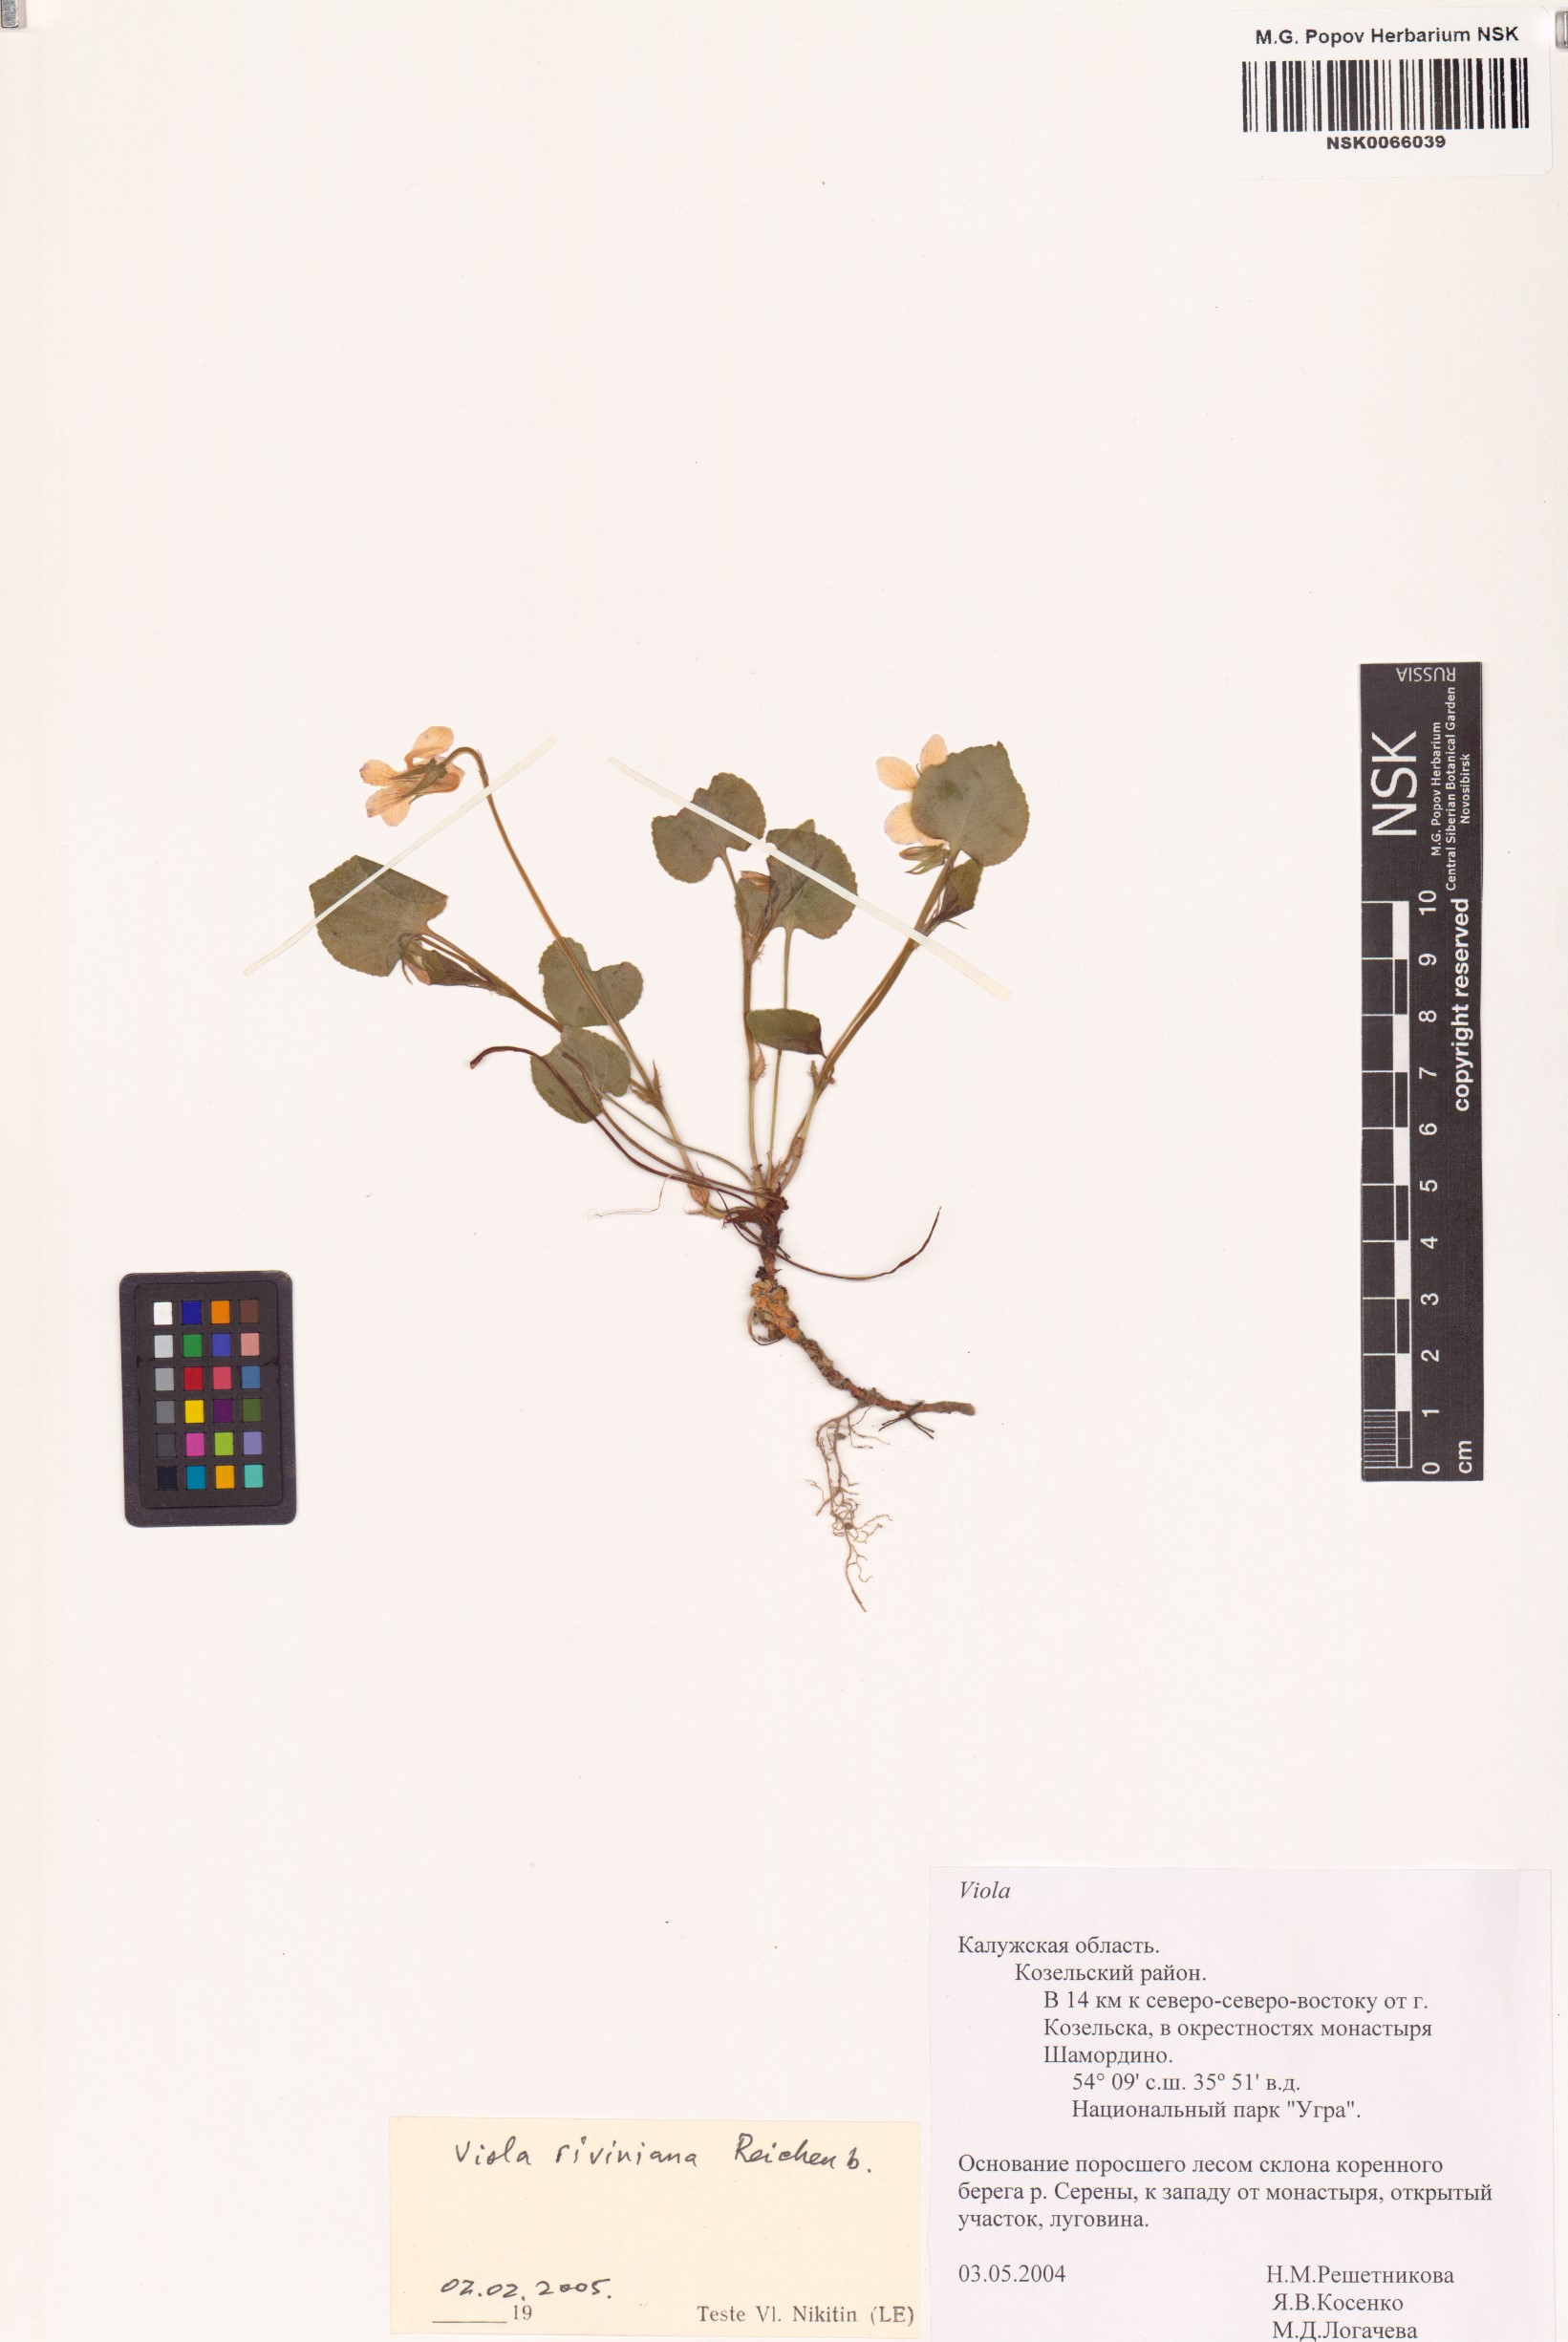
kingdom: Plantae
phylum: Tracheophyta
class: Magnoliopsida
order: Malpighiales
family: Violaceae
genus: Viola
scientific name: Viola riviniana
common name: Common dog-violet
